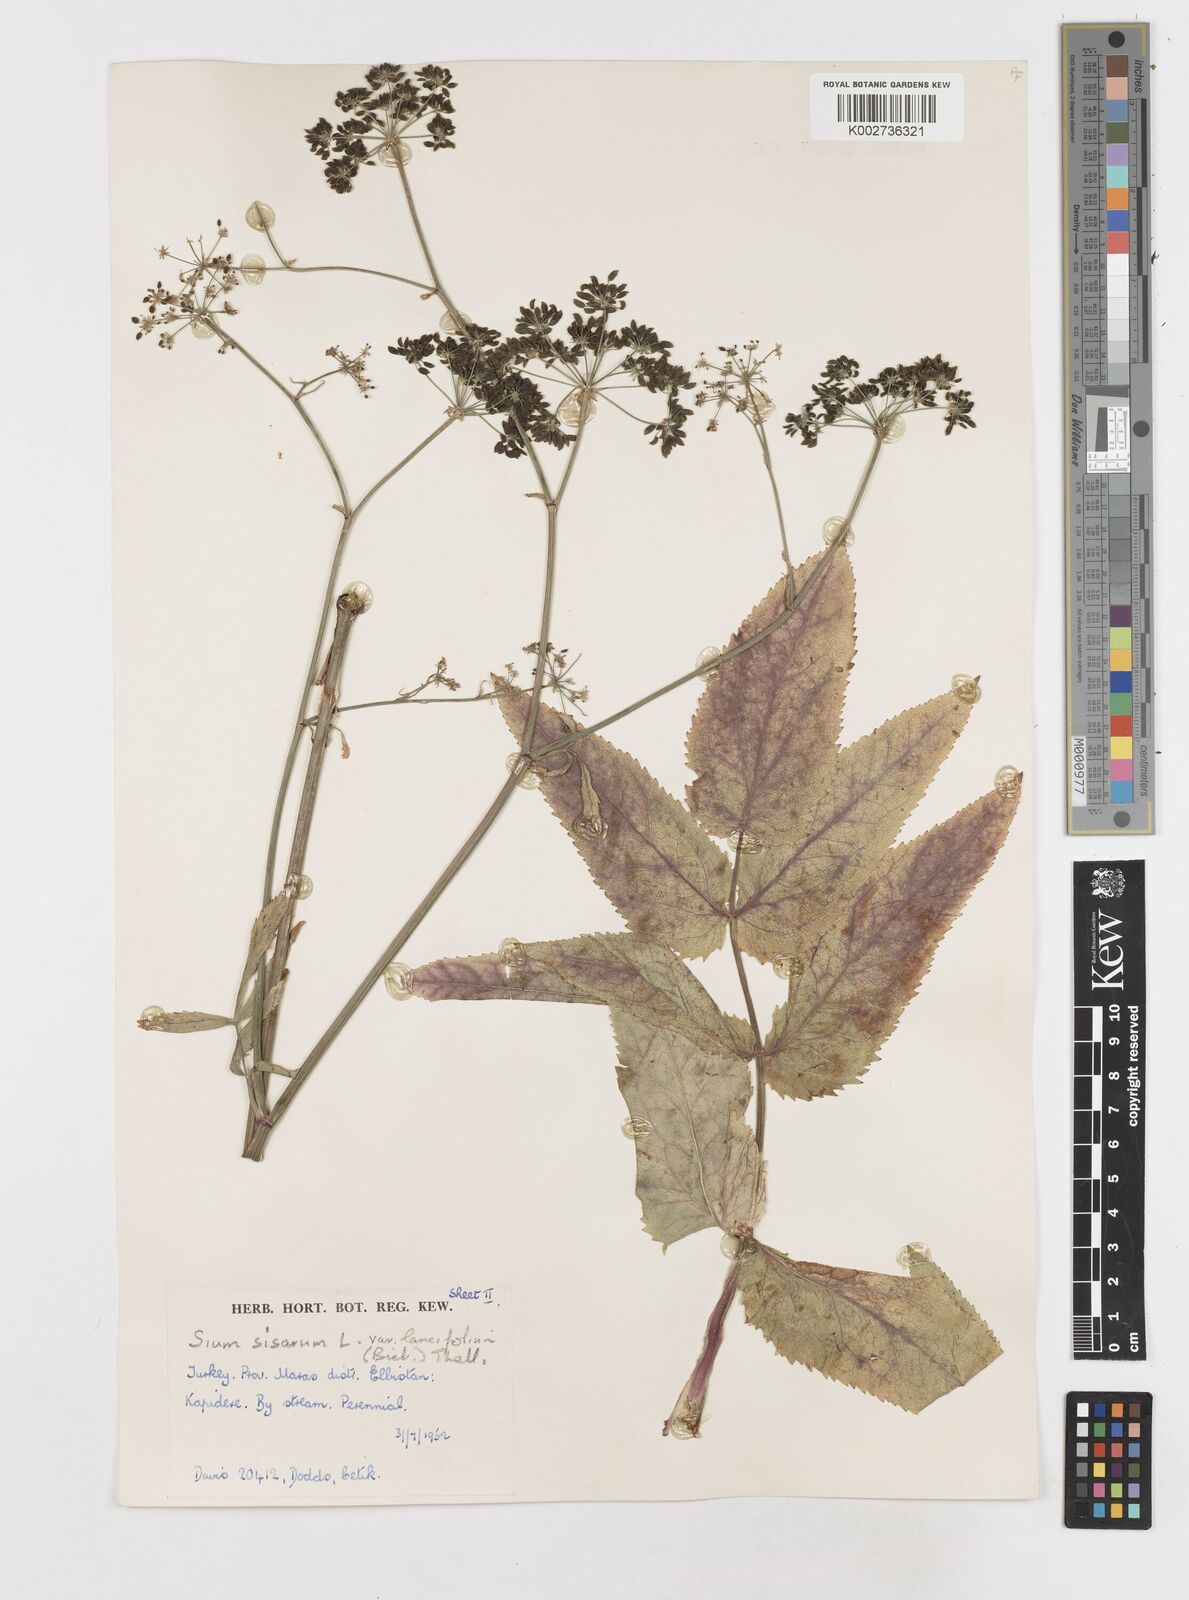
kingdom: Plantae
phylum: Tracheophyta
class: Magnoliopsida
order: Apiales
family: Apiaceae
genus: Sium
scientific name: Sium sisarum
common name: Skirret
